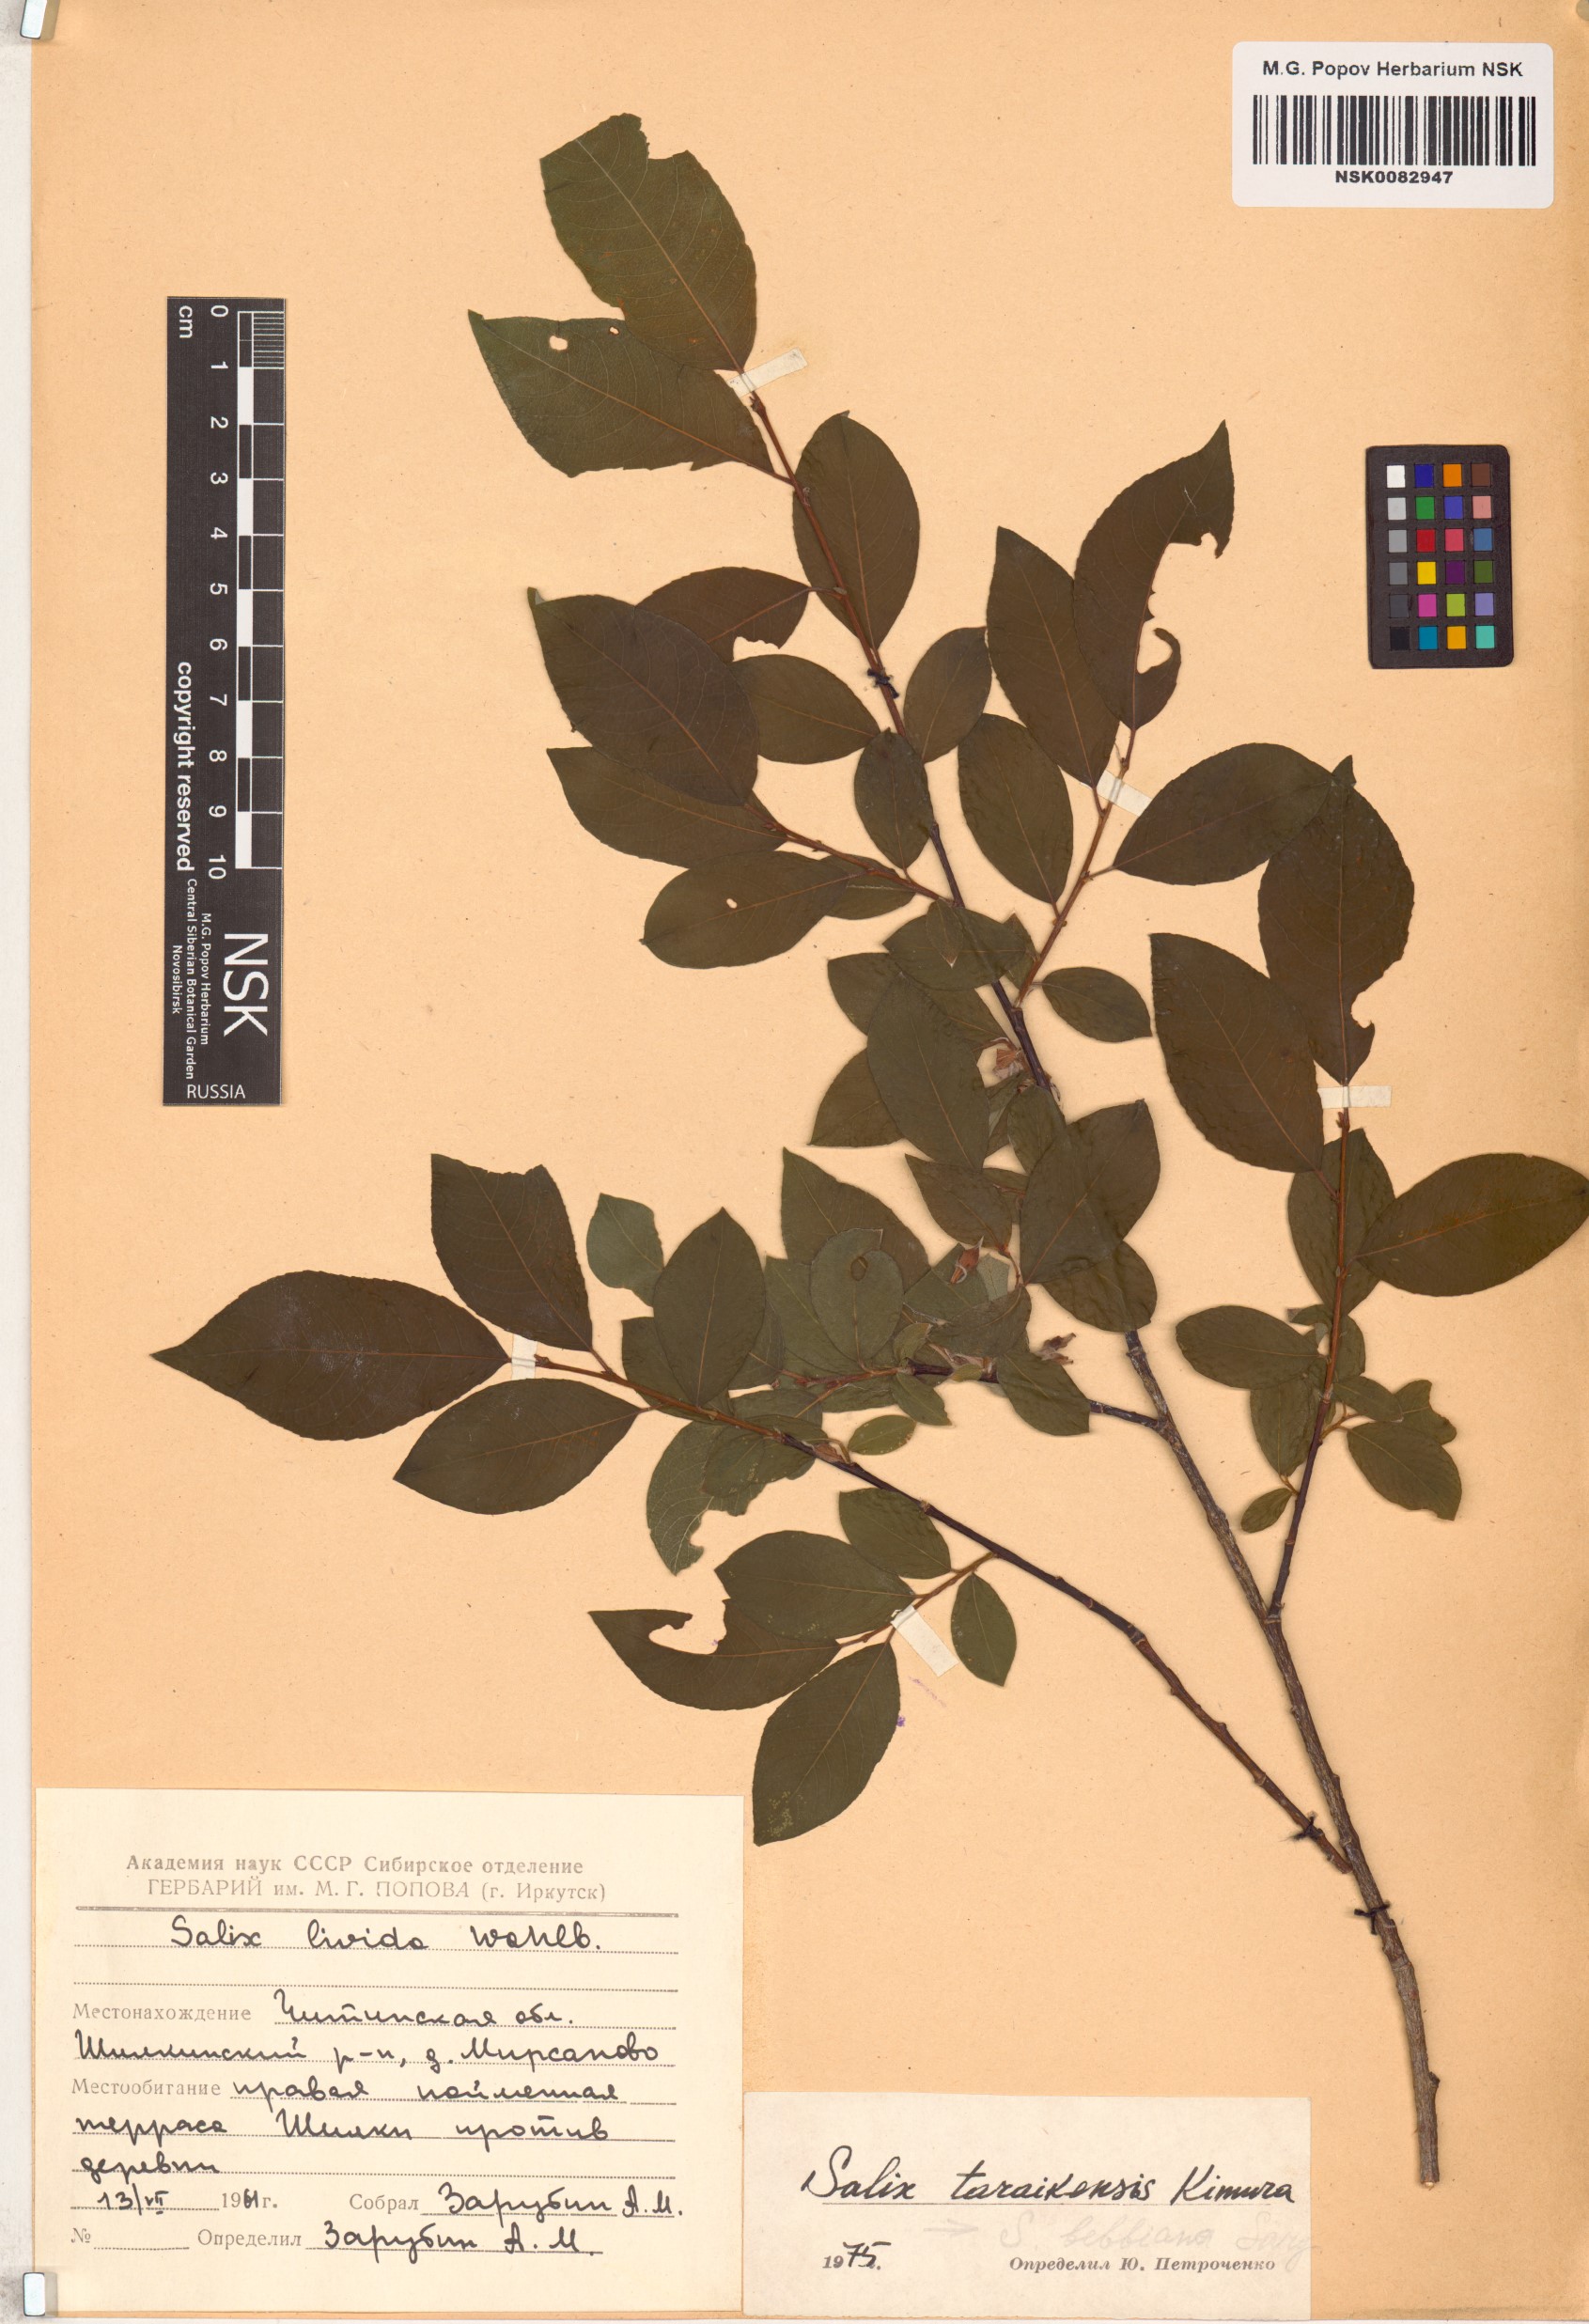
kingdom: Plantae
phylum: Tracheophyta
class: Magnoliopsida
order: Malpighiales
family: Salicaceae
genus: Salix
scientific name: Salix taraikensis
